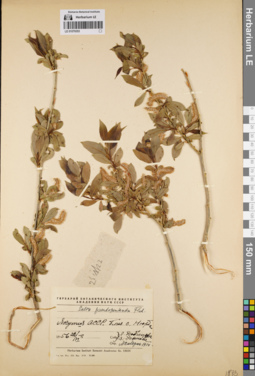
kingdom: Plantae
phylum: Tracheophyta
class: Magnoliopsida
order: Malpighiales
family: Salicaceae
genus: Salix
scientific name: Salix pseudopentandra
